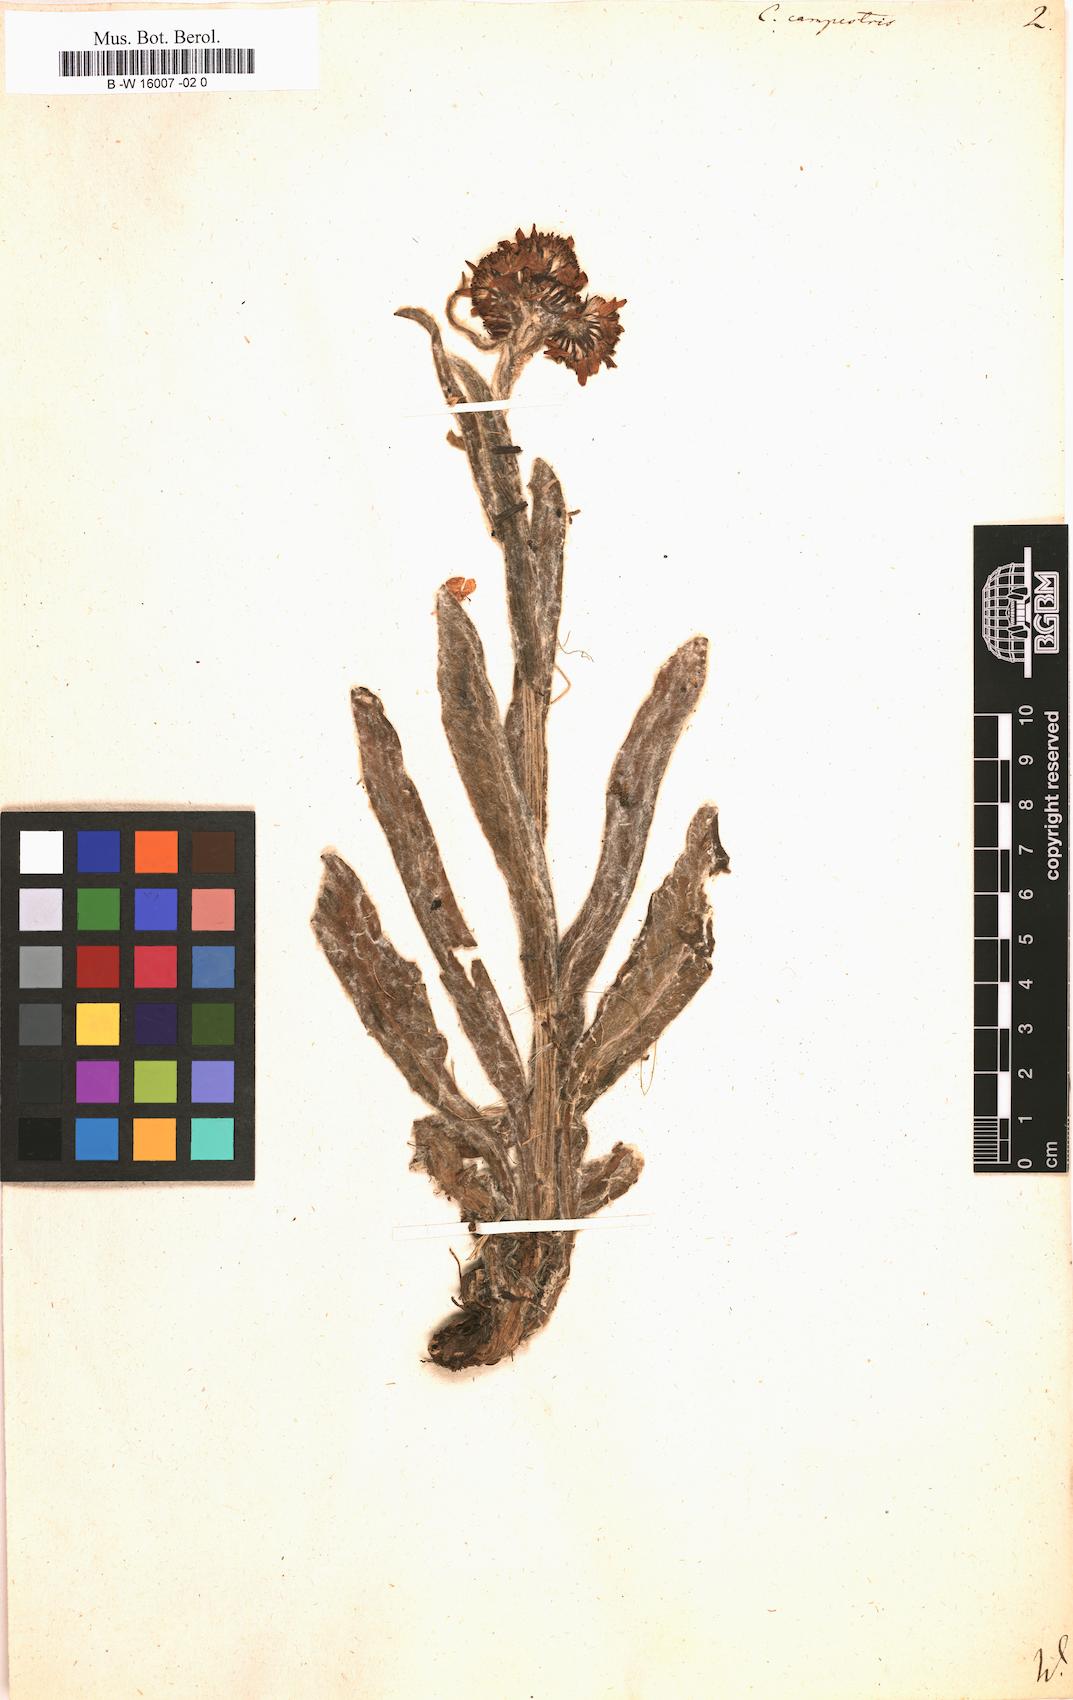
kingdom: Plantae
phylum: Tracheophyta
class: Magnoliopsida
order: Asterales
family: Asteraceae
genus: Tephroseris
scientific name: Tephroseris
